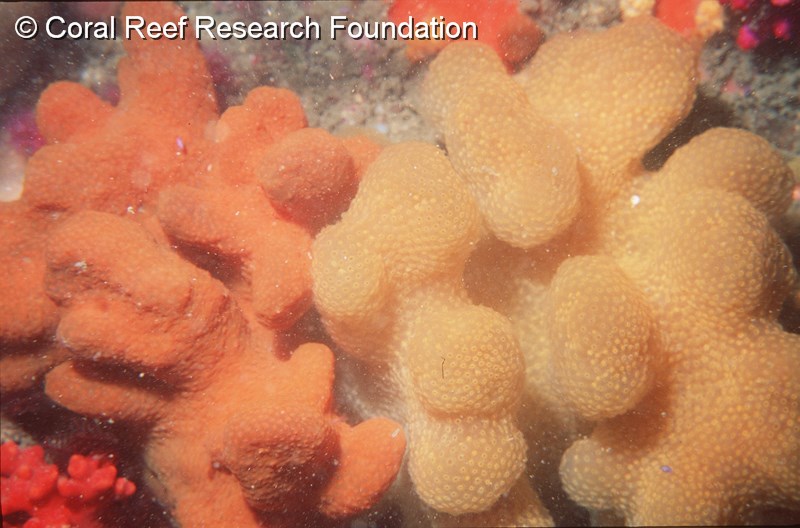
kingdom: Animalia
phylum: Chordata
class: Ascidiacea
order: Aplousobranchia
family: Pseudodistomidae
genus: Pseudodistoma
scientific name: Pseudodistoma
